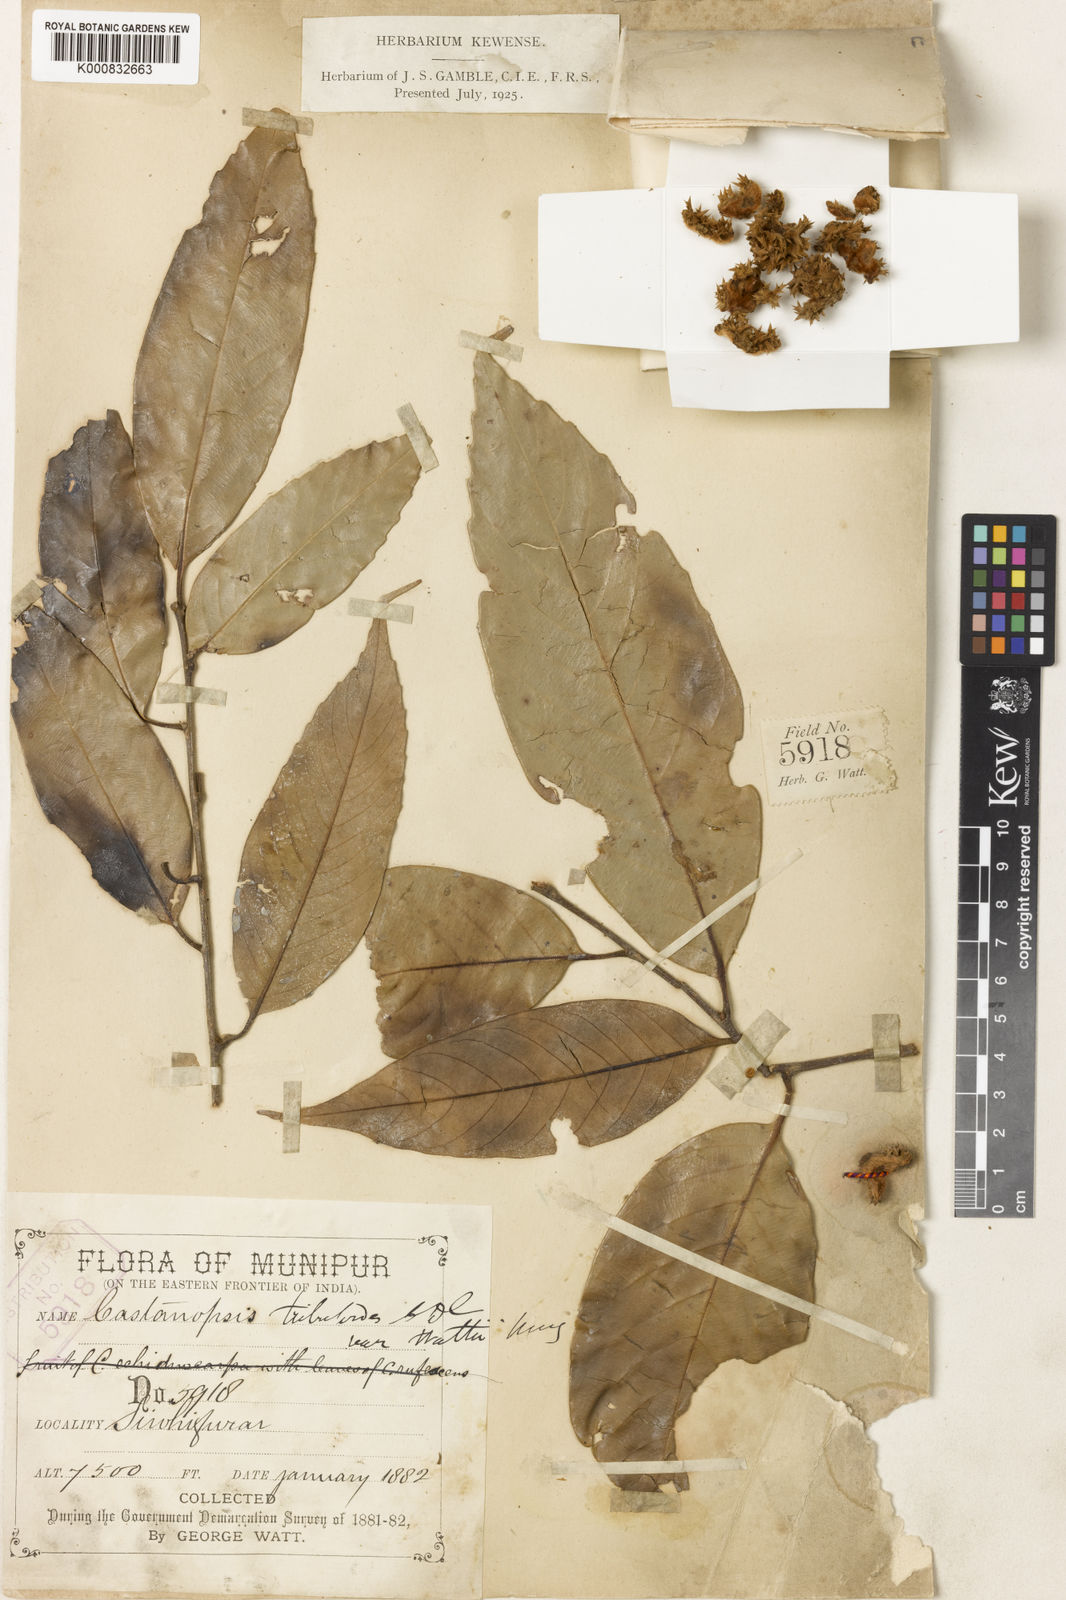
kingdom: Plantae
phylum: Tracheophyta
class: Magnoliopsida
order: Fagales
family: Fagaceae
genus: Castanopsis
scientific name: Castanopsis tribuloides
